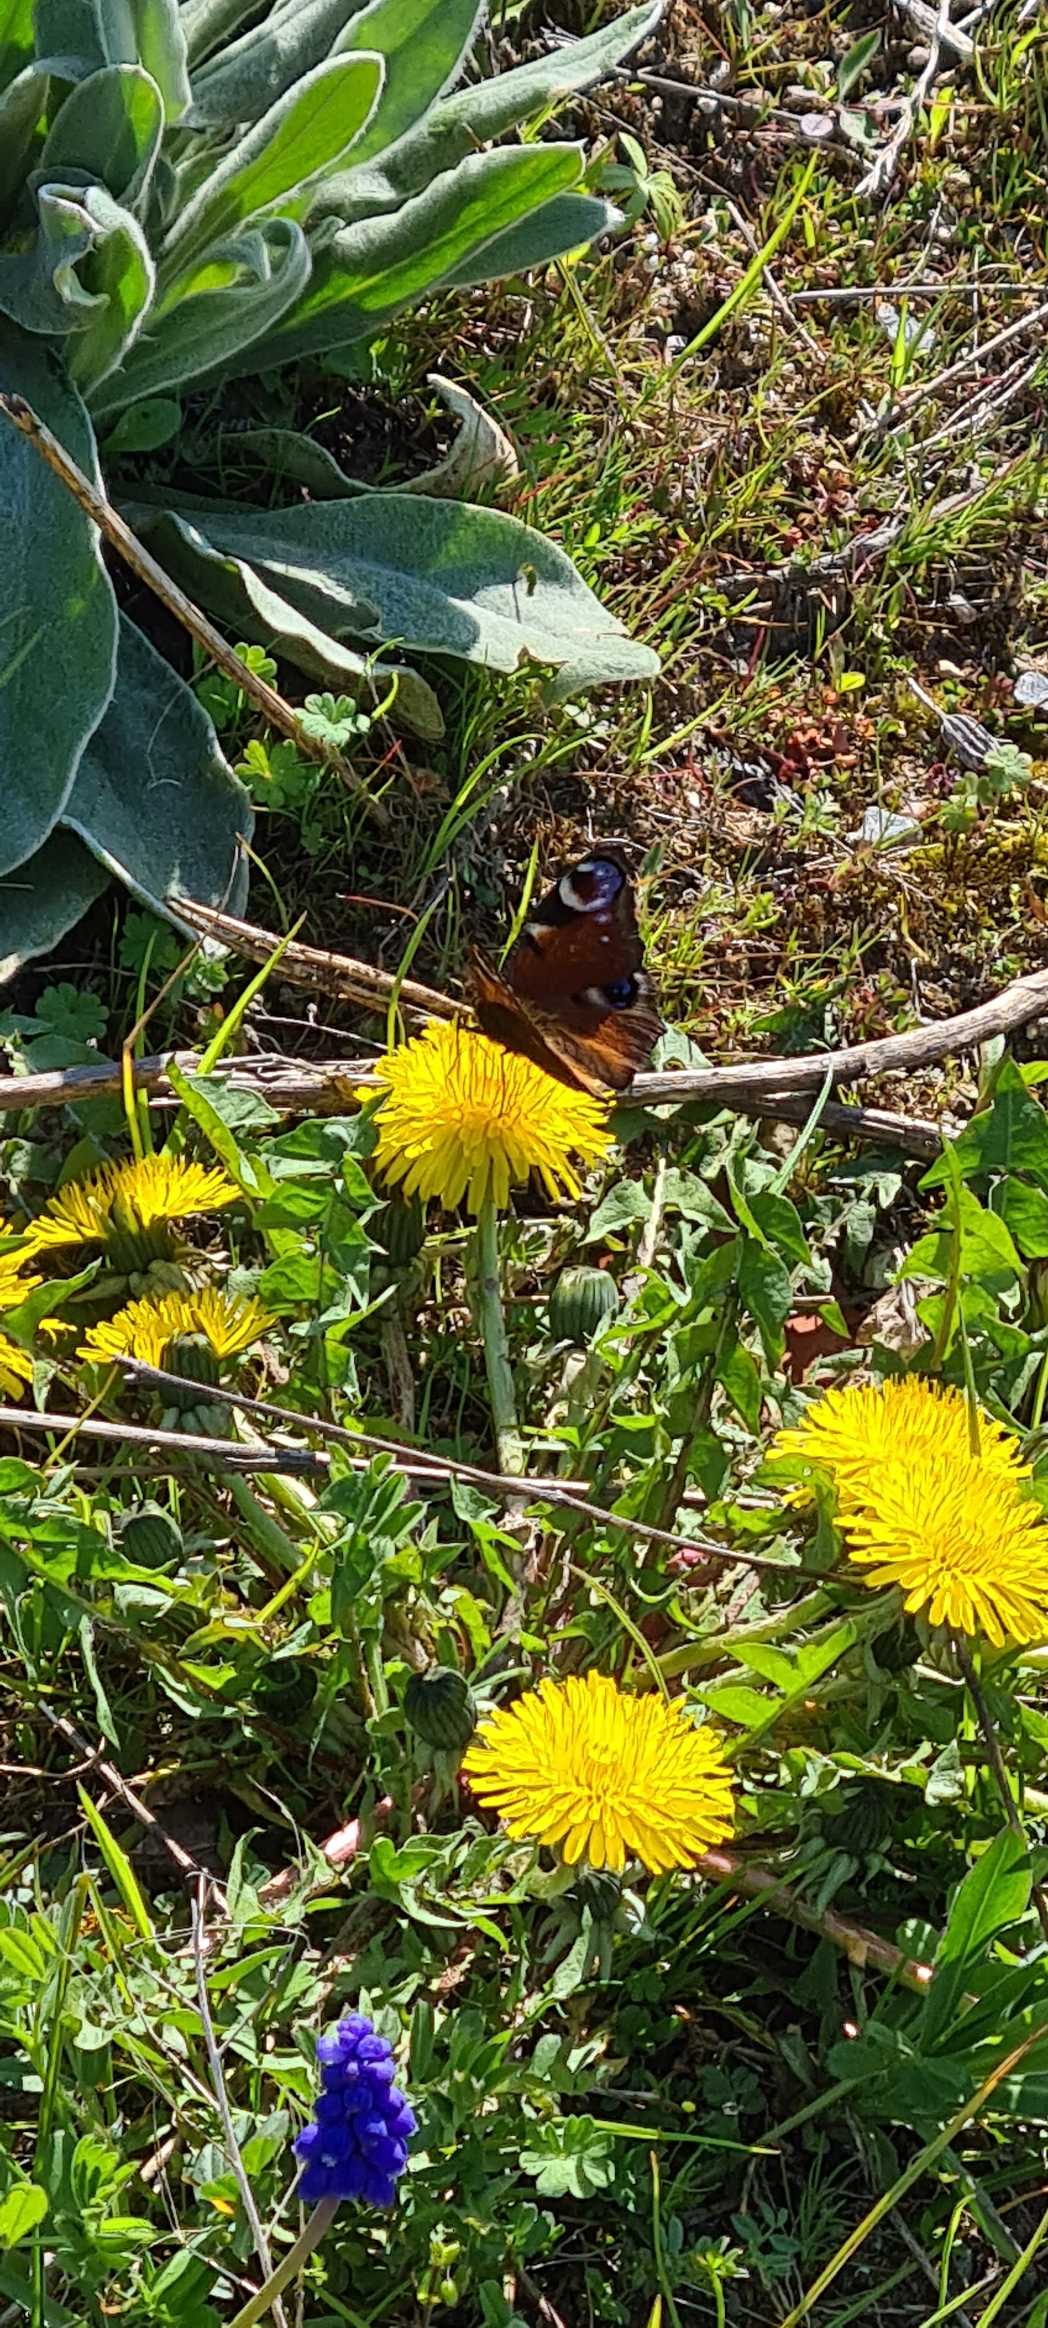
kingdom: Animalia
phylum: Arthropoda
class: Insecta
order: Lepidoptera
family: Nymphalidae
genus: Aglais
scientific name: Aglais io
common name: Dagpåfugleøje
